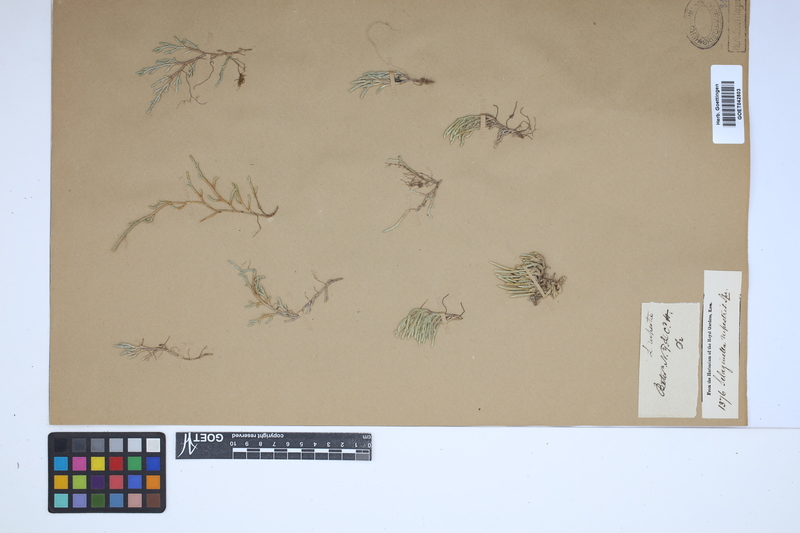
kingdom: Plantae
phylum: Tracheophyta
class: Lycopodiopsida
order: Selaginellales
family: Selaginellaceae
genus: Selaginella
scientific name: Selaginella rupestris
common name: Dwarf spikemoss
